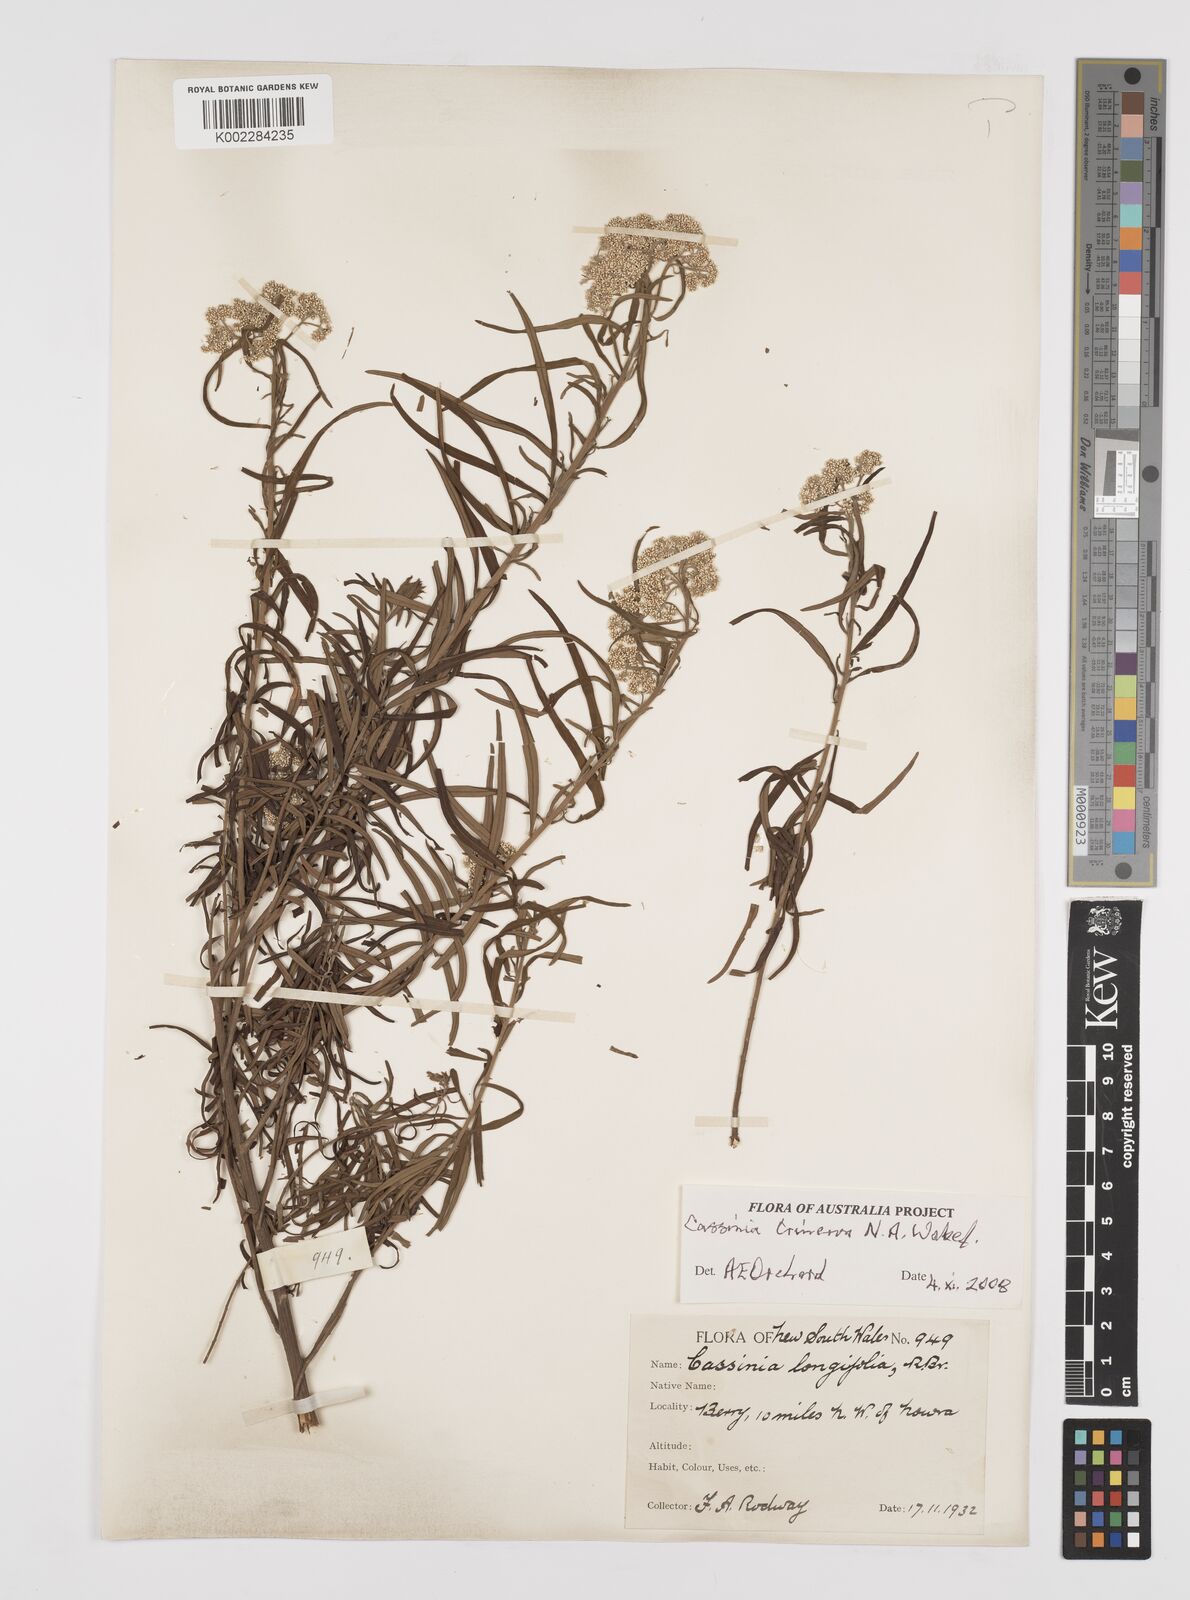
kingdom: Plantae
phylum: Tracheophyta
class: Magnoliopsida
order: Asterales
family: Asteraceae
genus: Cassinia
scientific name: Cassinia trinerva
